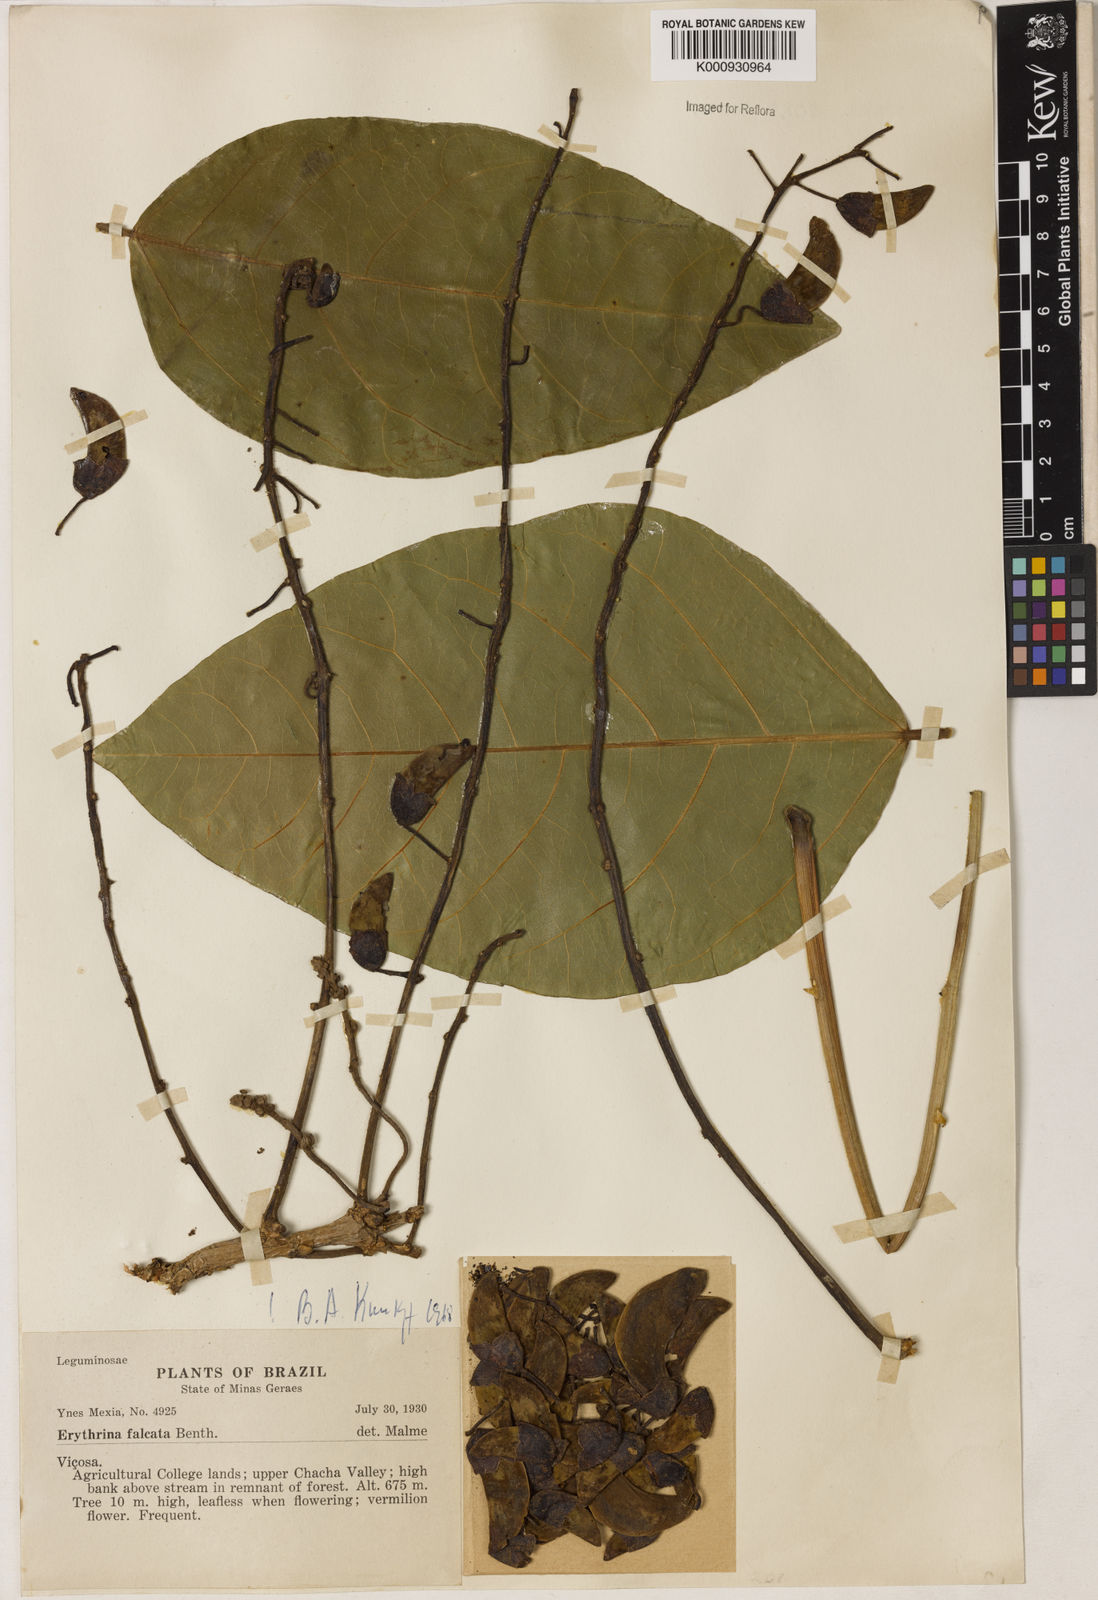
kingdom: Plantae
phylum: Tracheophyta
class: Magnoliopsida
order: Fabales
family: Fabaceae
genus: Erythrina
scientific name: Erythrina falcata
